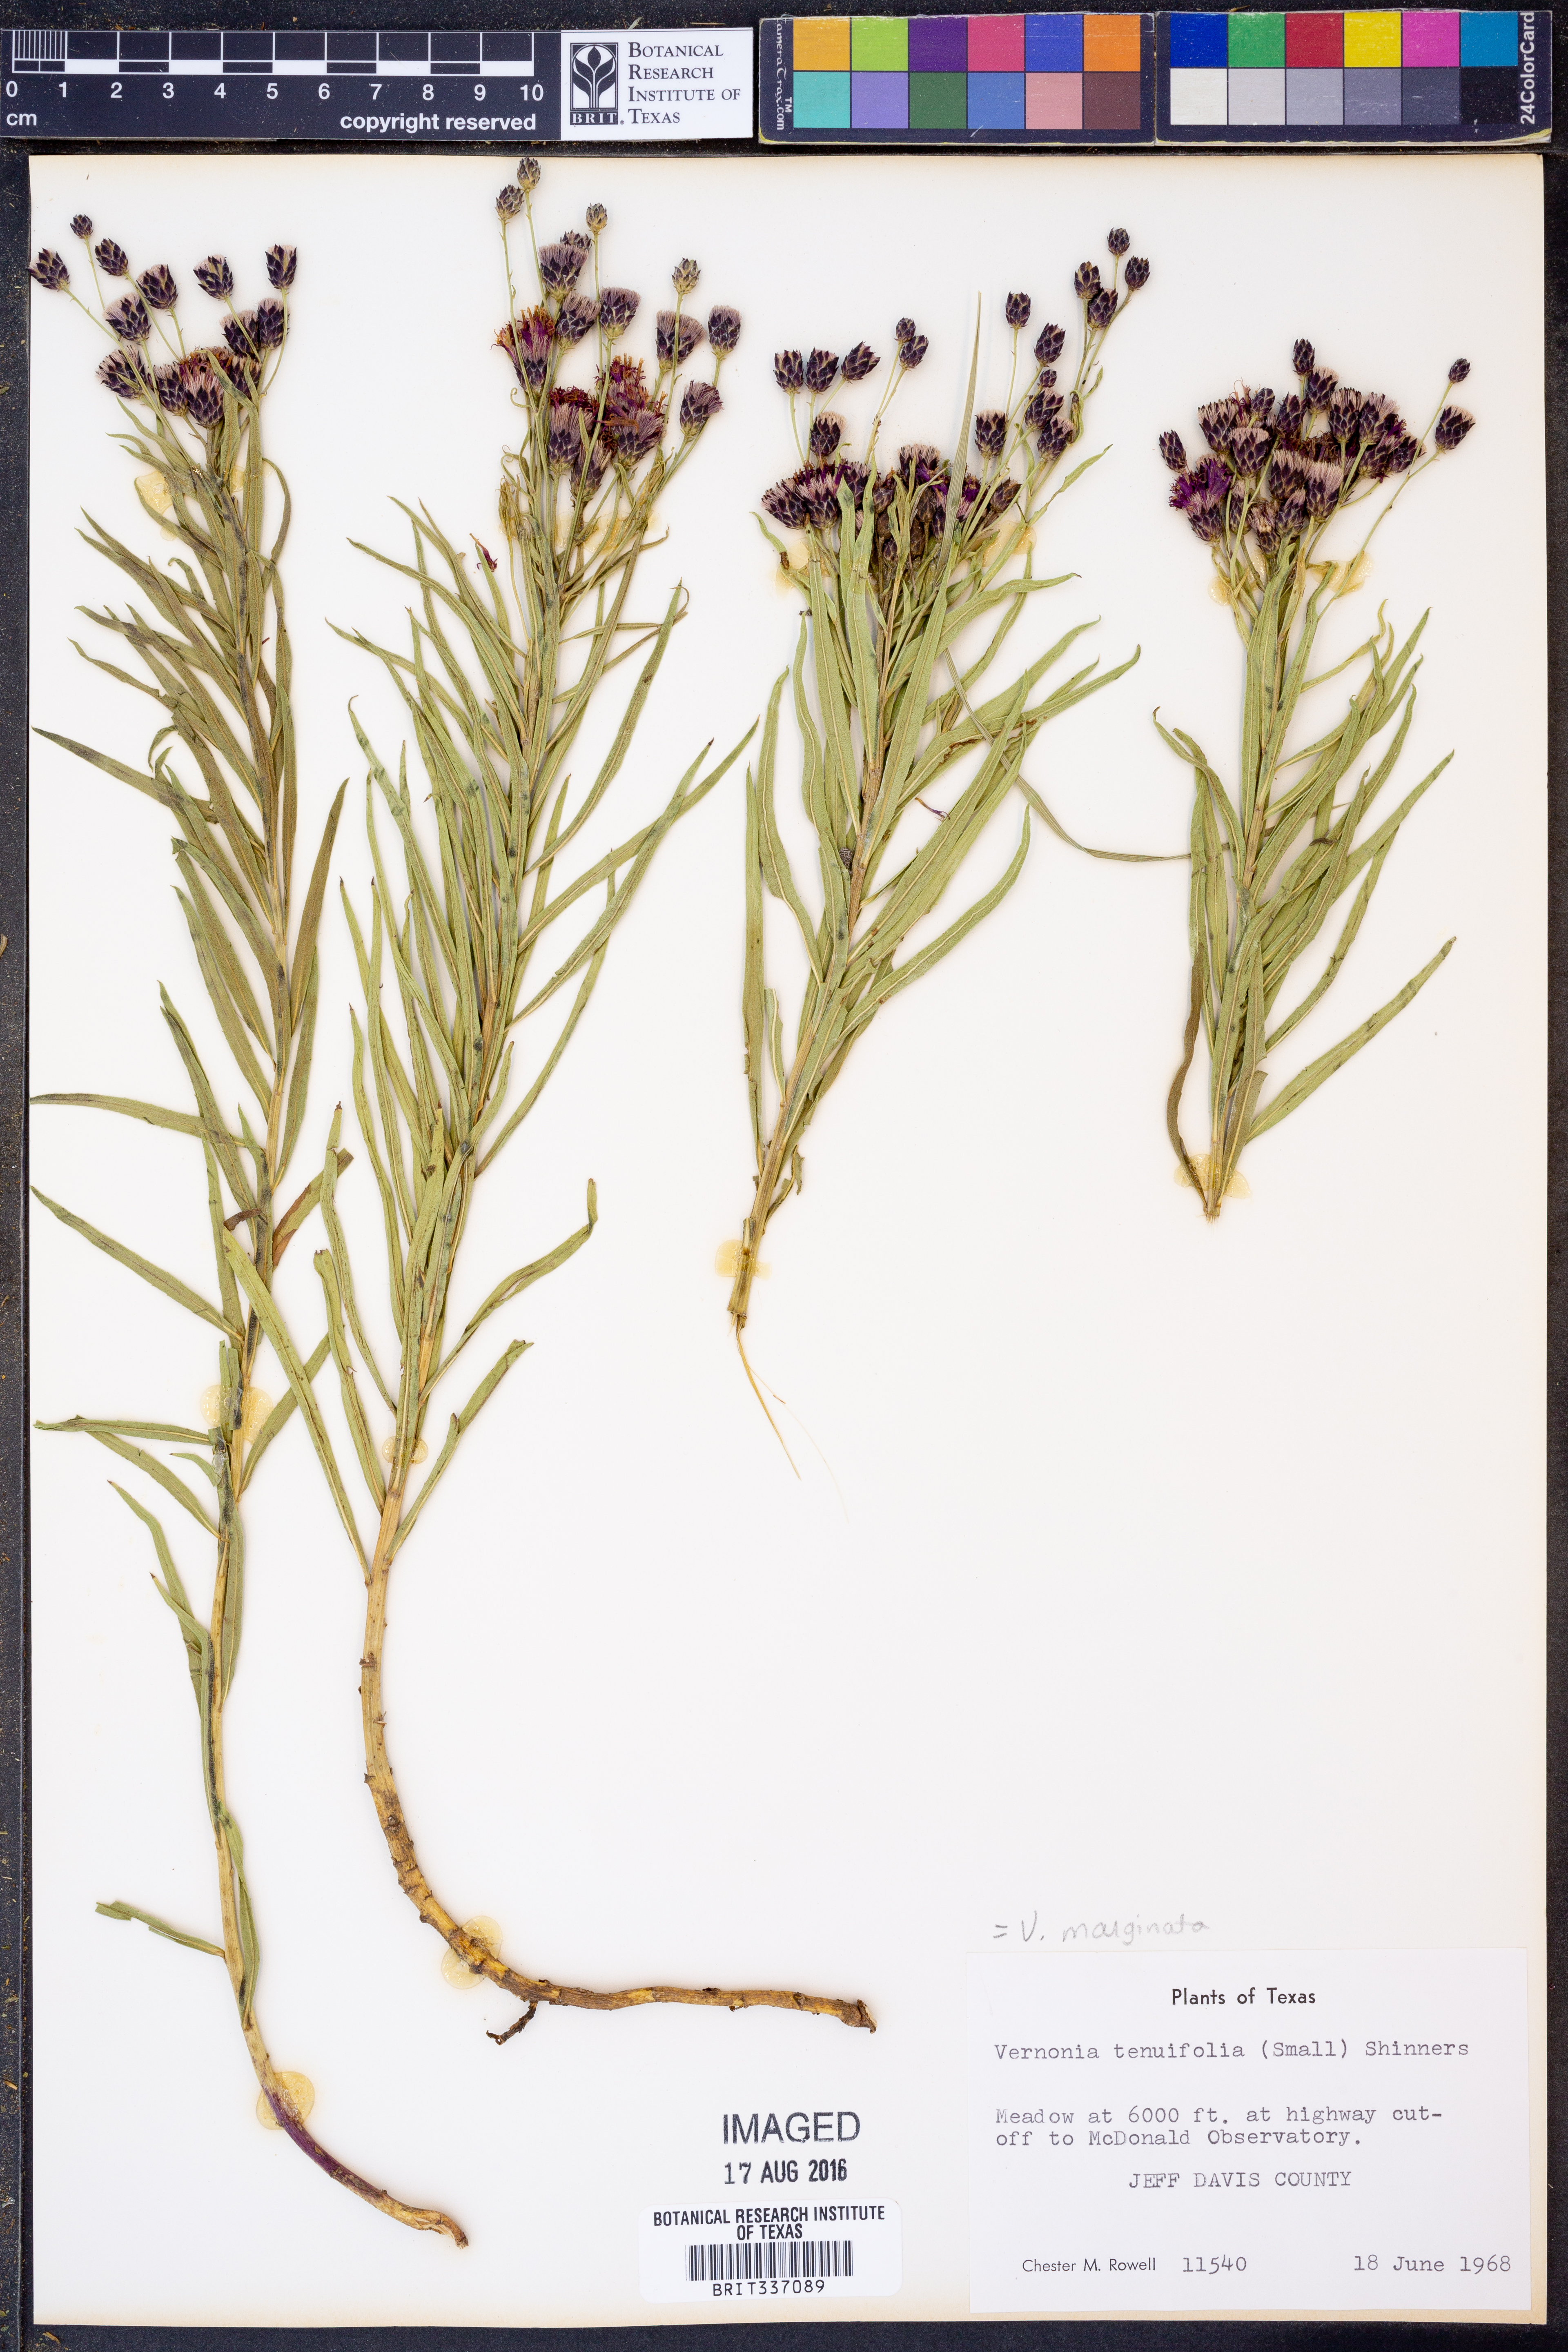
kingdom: Plantae
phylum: Tracheophyta
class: Magnoliopsida
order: Asterales
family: Asteraceae
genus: Vernonia
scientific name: Vernonia marginata
